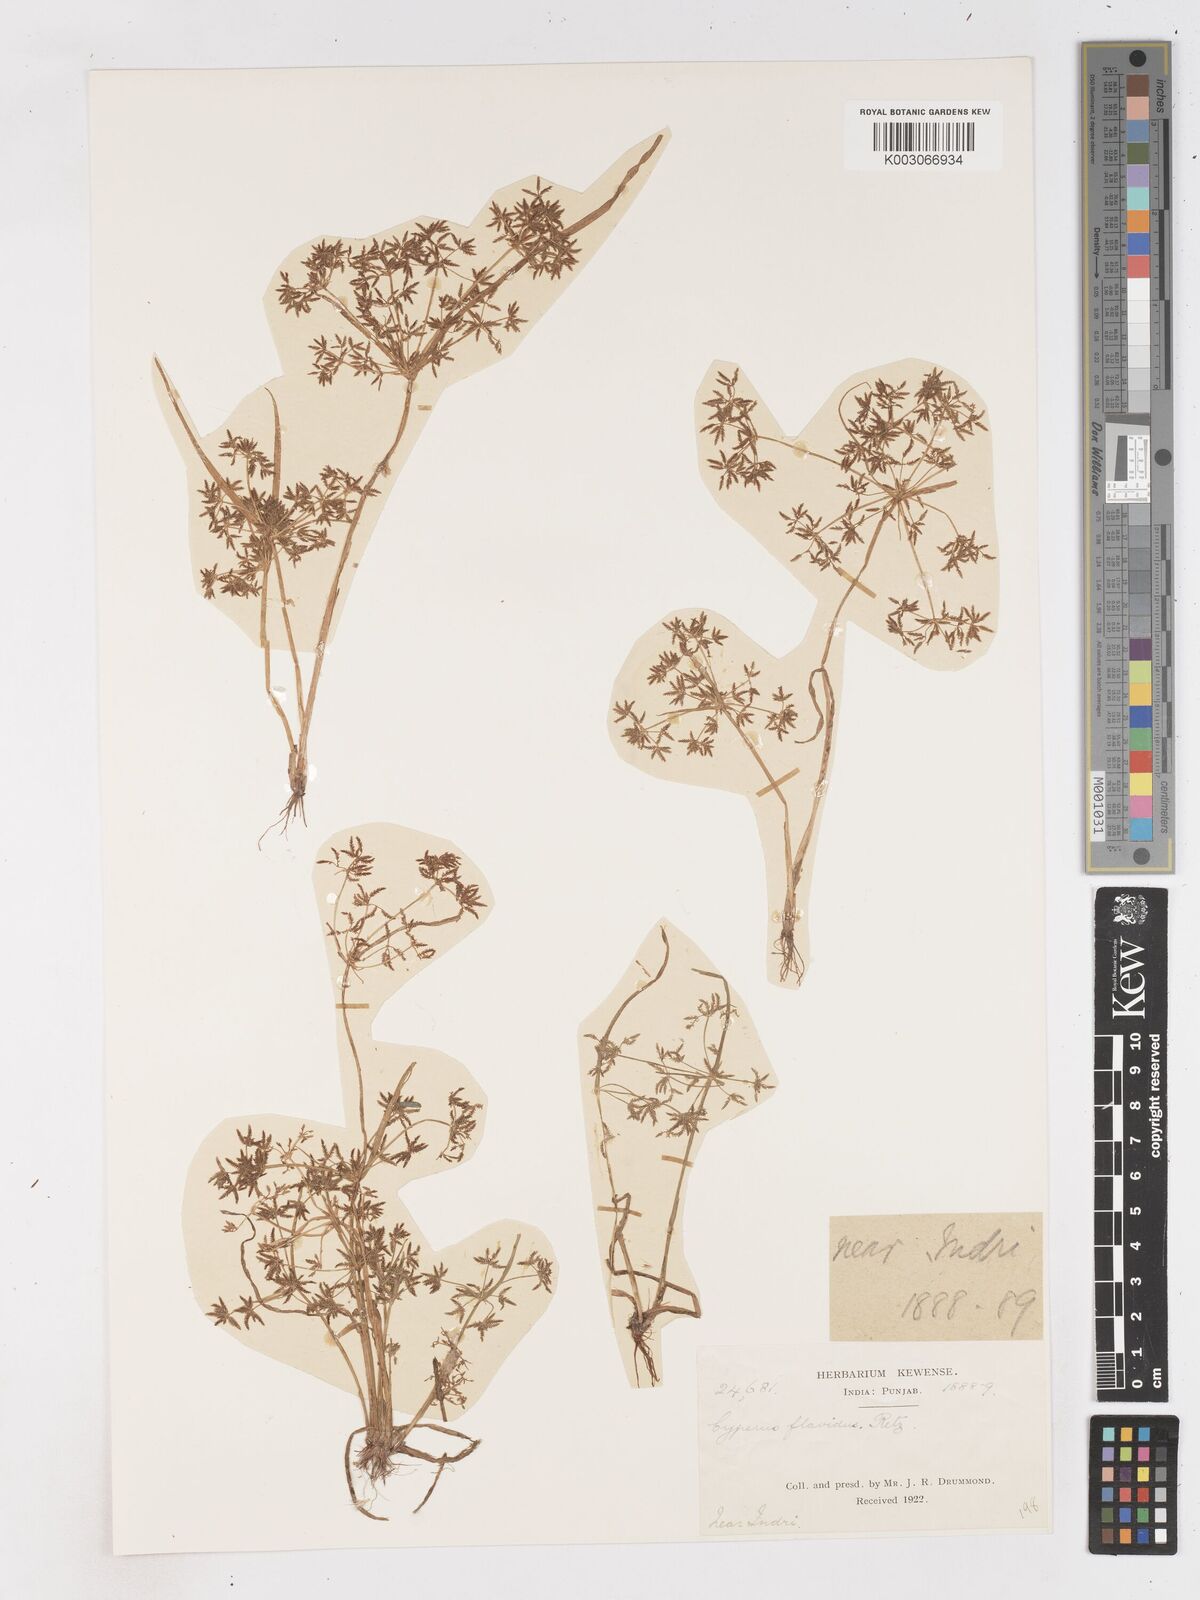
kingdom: Plantae
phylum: Tracheophyta
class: Liliopsida
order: Poales
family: Cyperaceae
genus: Cyperus
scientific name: Cyperus tenuispica
